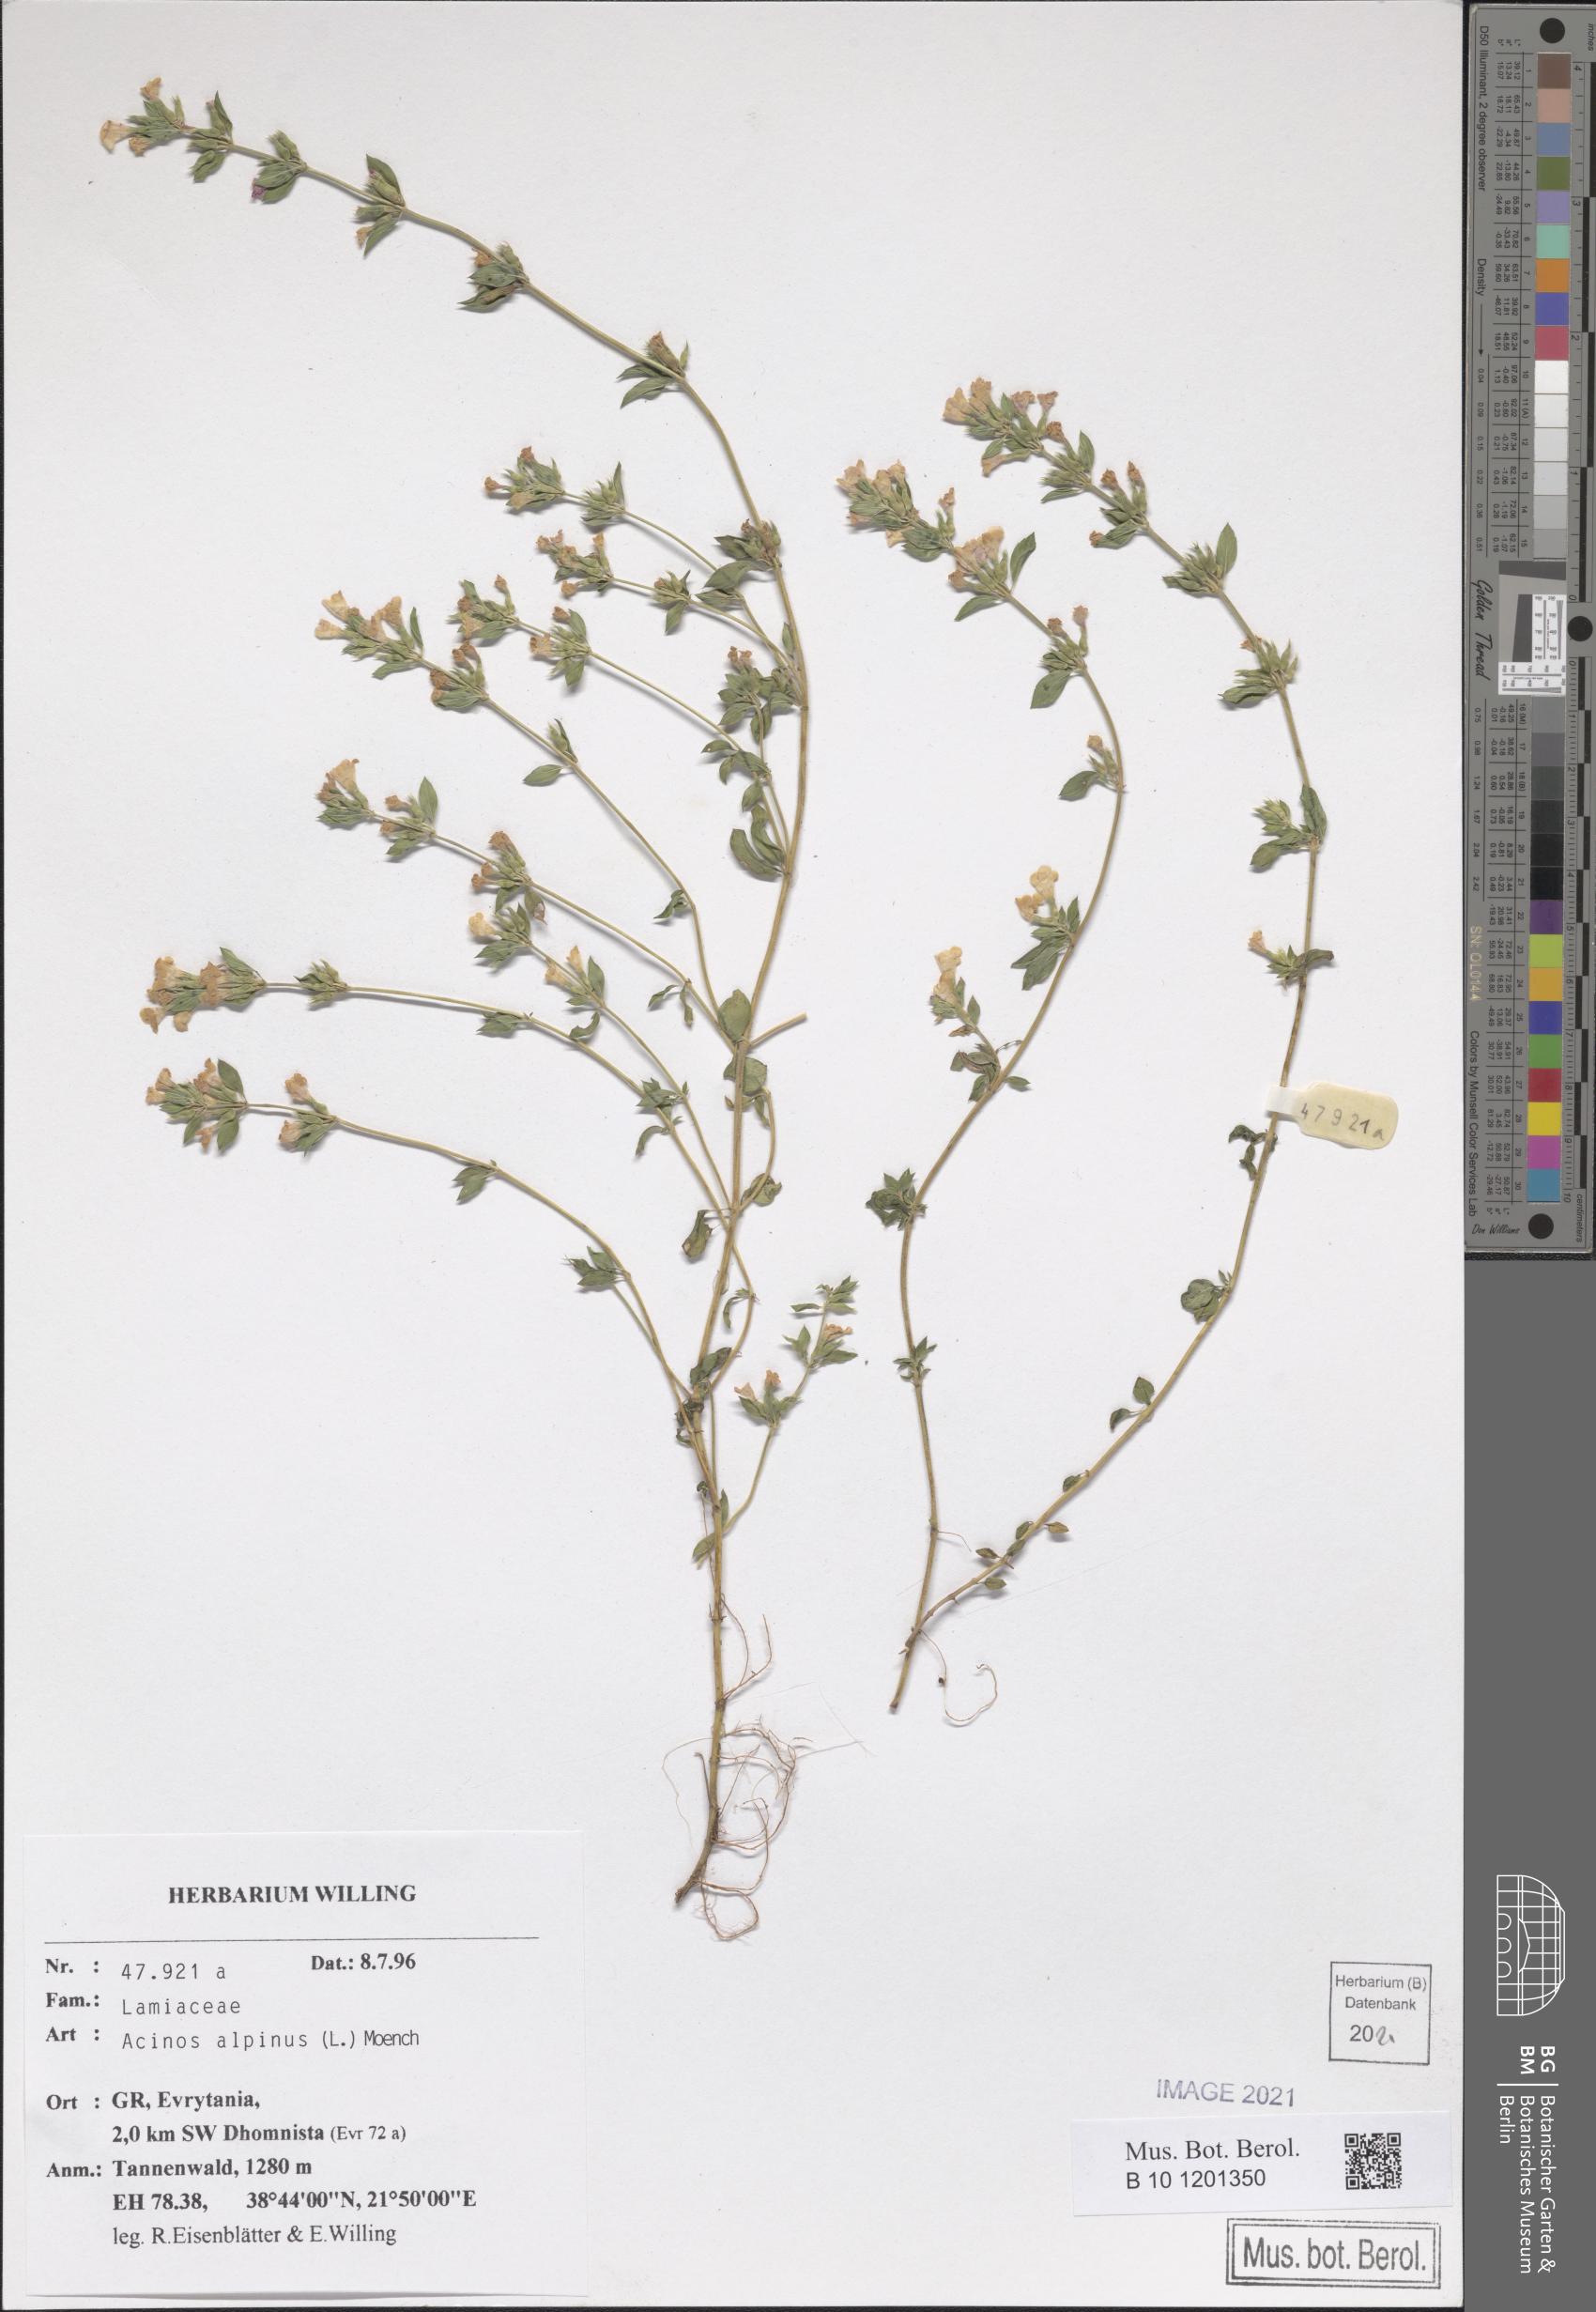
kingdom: Plantae
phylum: Tracheophyta
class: Magnoliopsida
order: Lamiales
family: Lamiaceae
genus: Clinopodium
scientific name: Clinopodium alpinum
